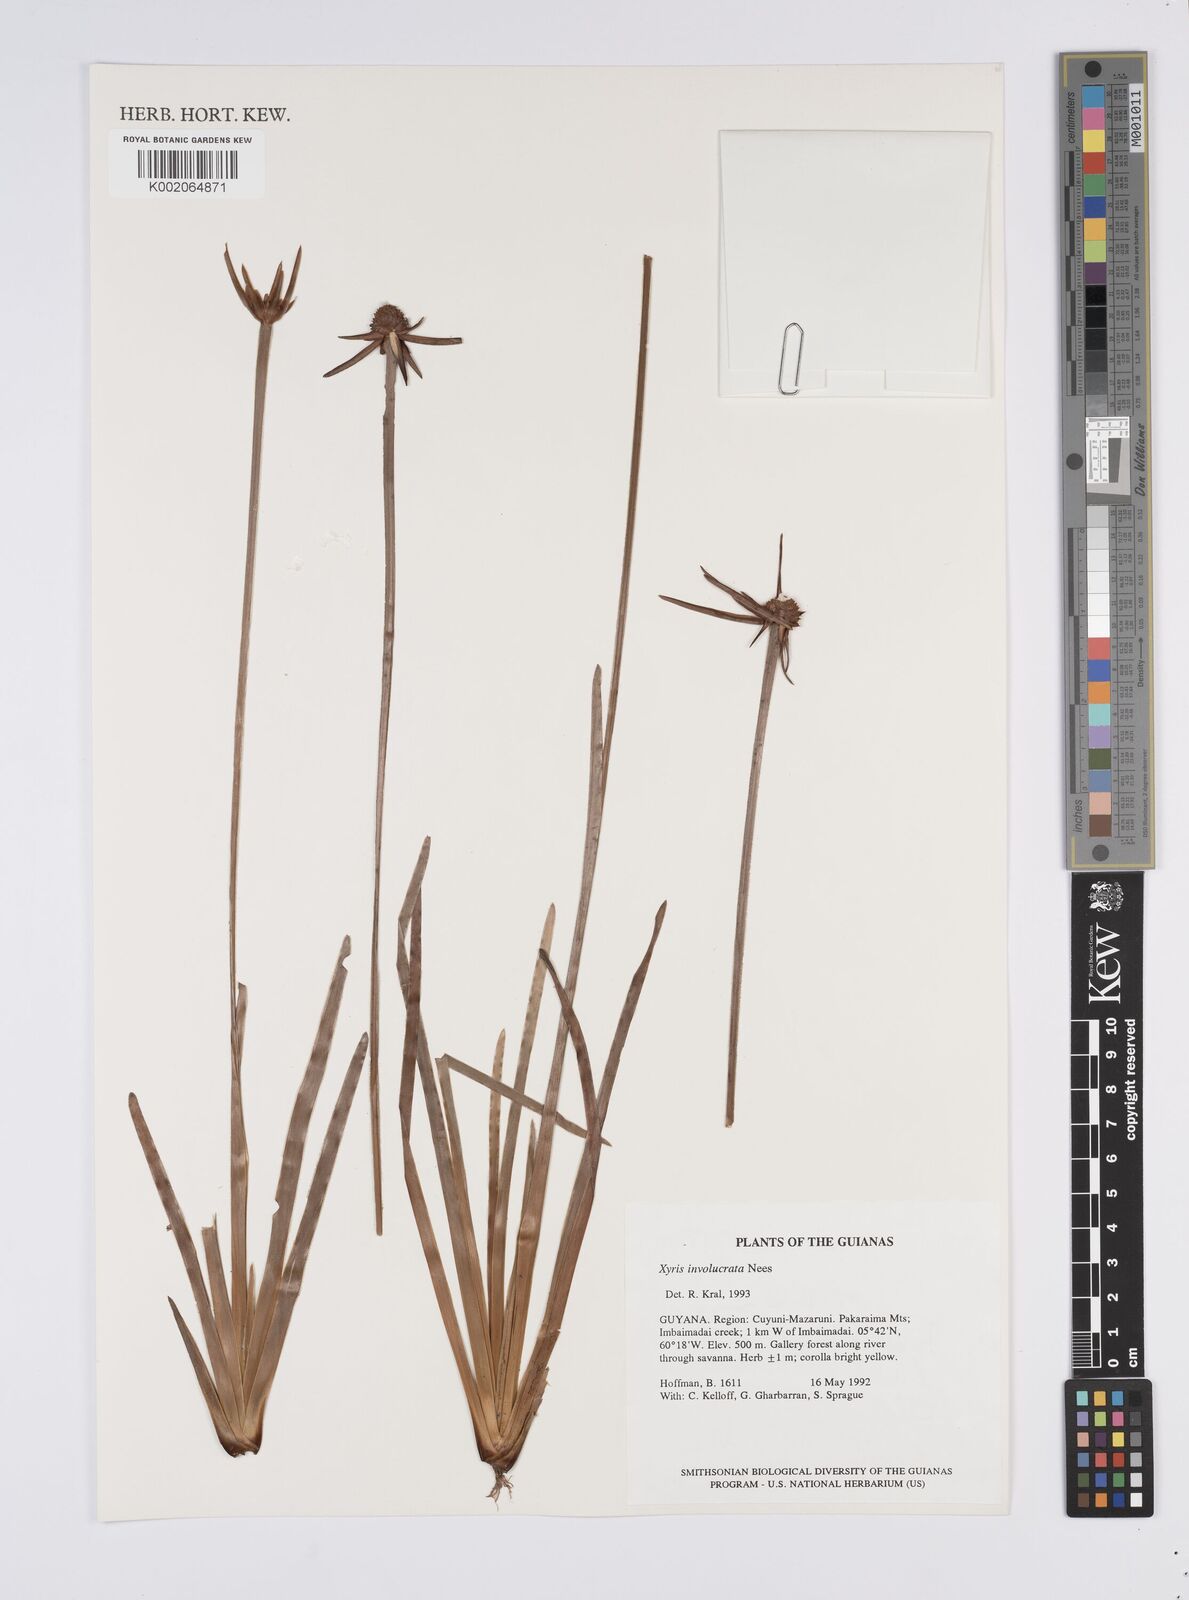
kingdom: Plantae
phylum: Tracheophyta
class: Liliopsida
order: Poales
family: Xyridaceae
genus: Xyris
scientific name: Xyris involucrata
